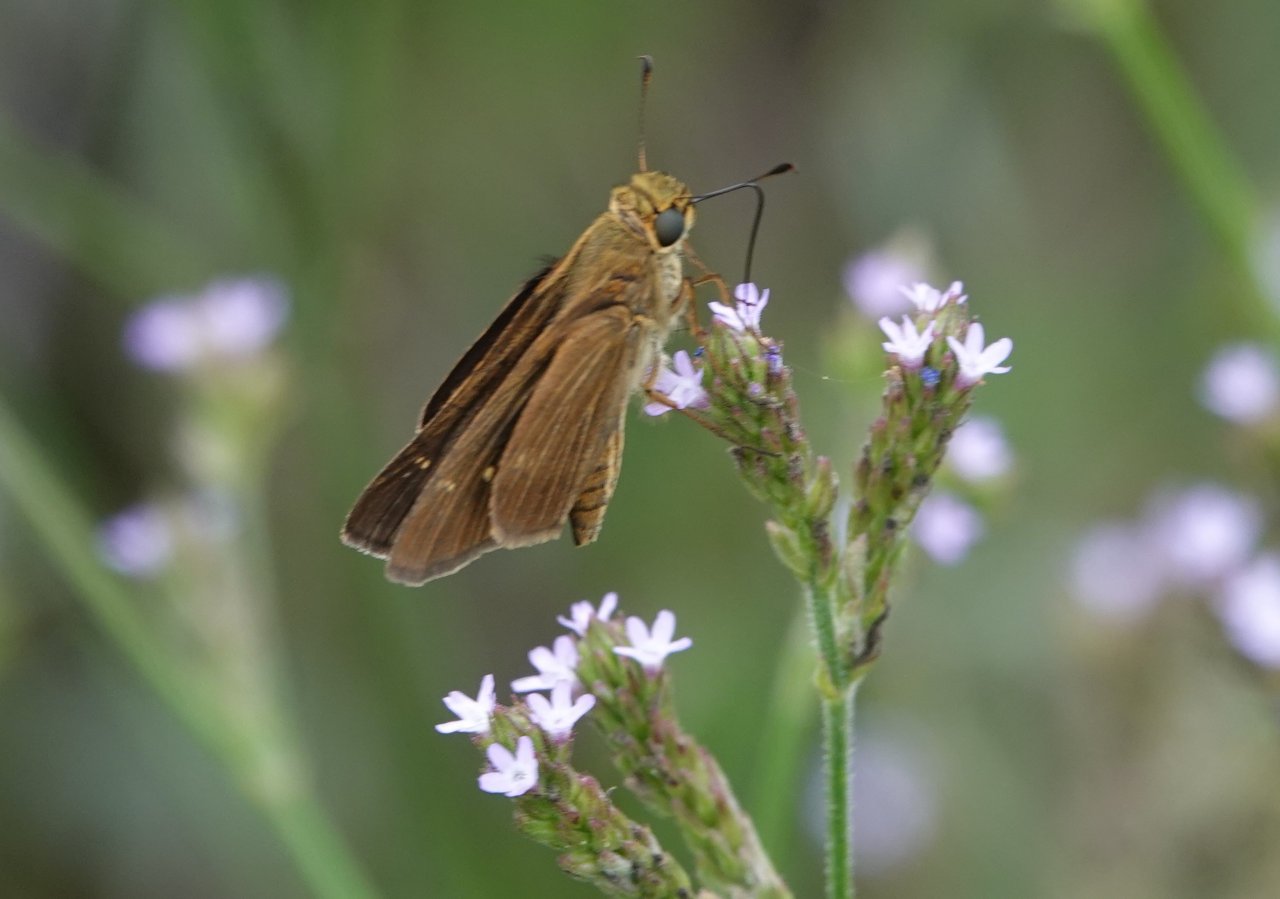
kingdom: Animalia
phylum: Arthropoda
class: Insecta
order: Lepidoptera
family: Hesperiidae
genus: Panoquina
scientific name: Panoquina ocola
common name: Ocola Skipper
